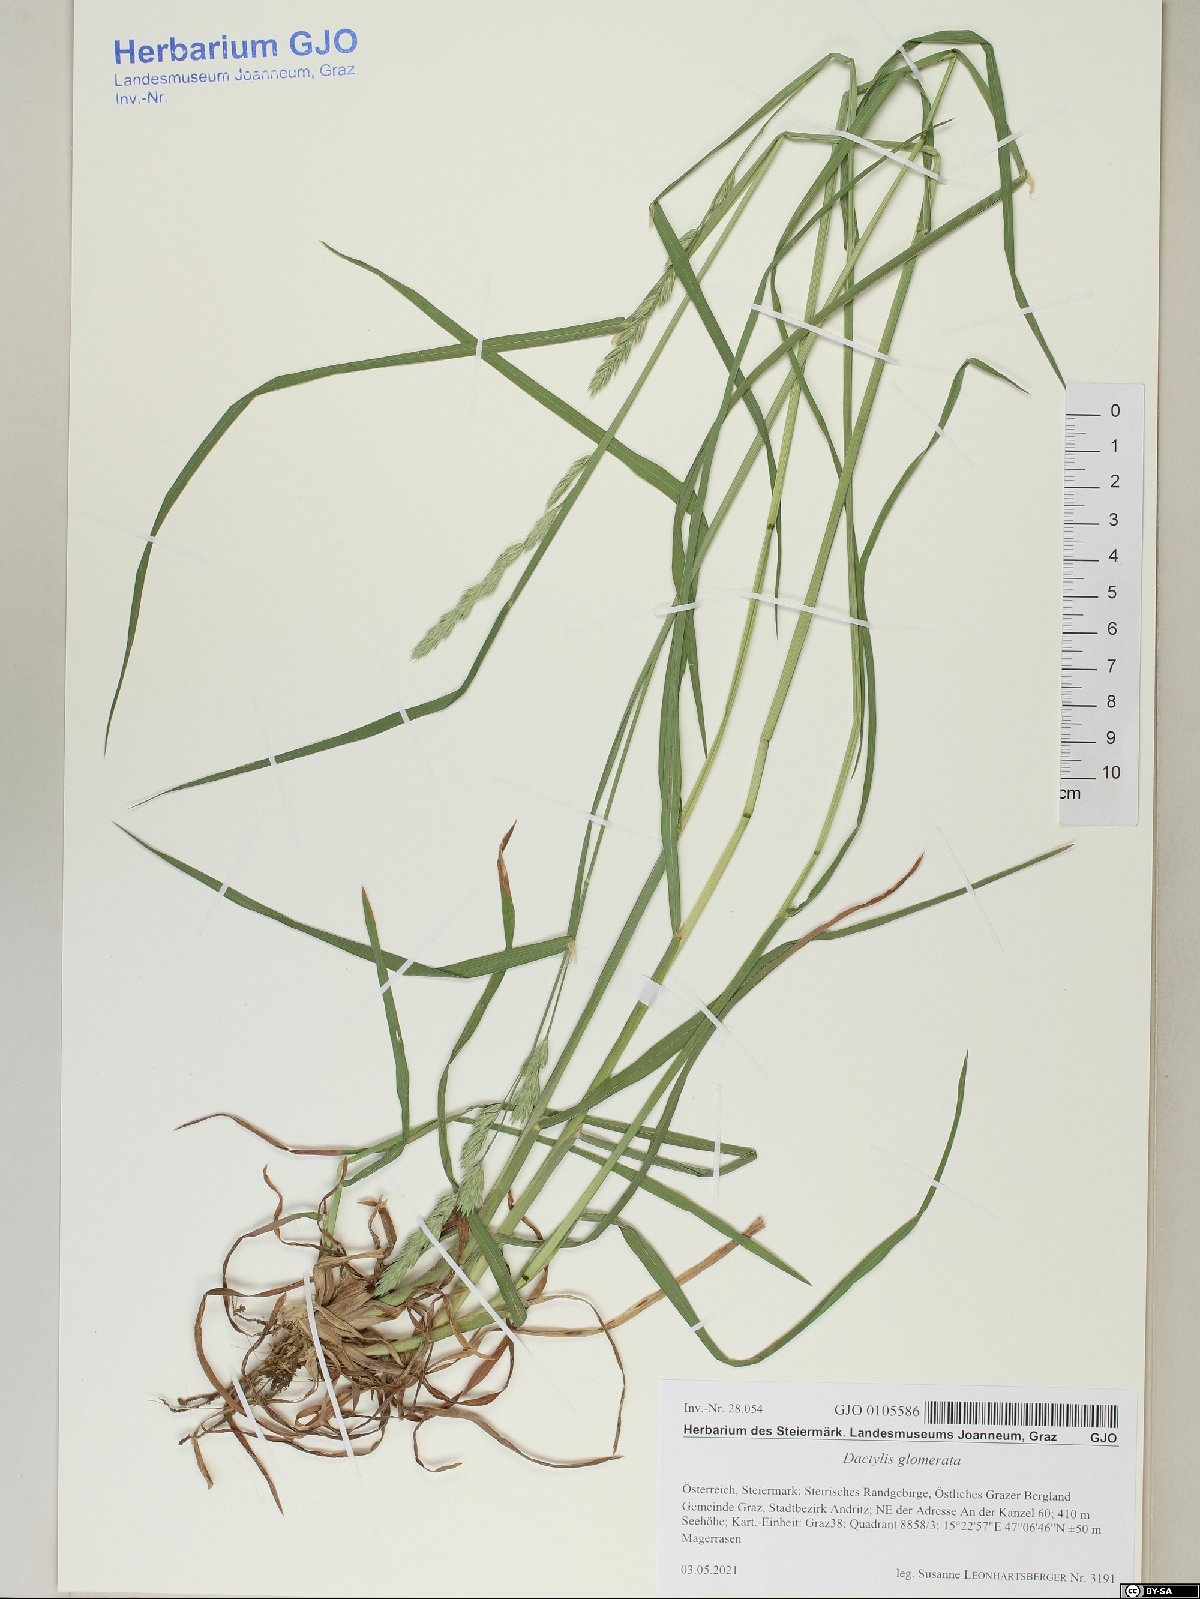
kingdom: Plantae
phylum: Tracheophyta
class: Liliopsida
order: Poales
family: Poaceae
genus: Dactylis
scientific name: Dactylis glomerata
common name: Orchardgrass
